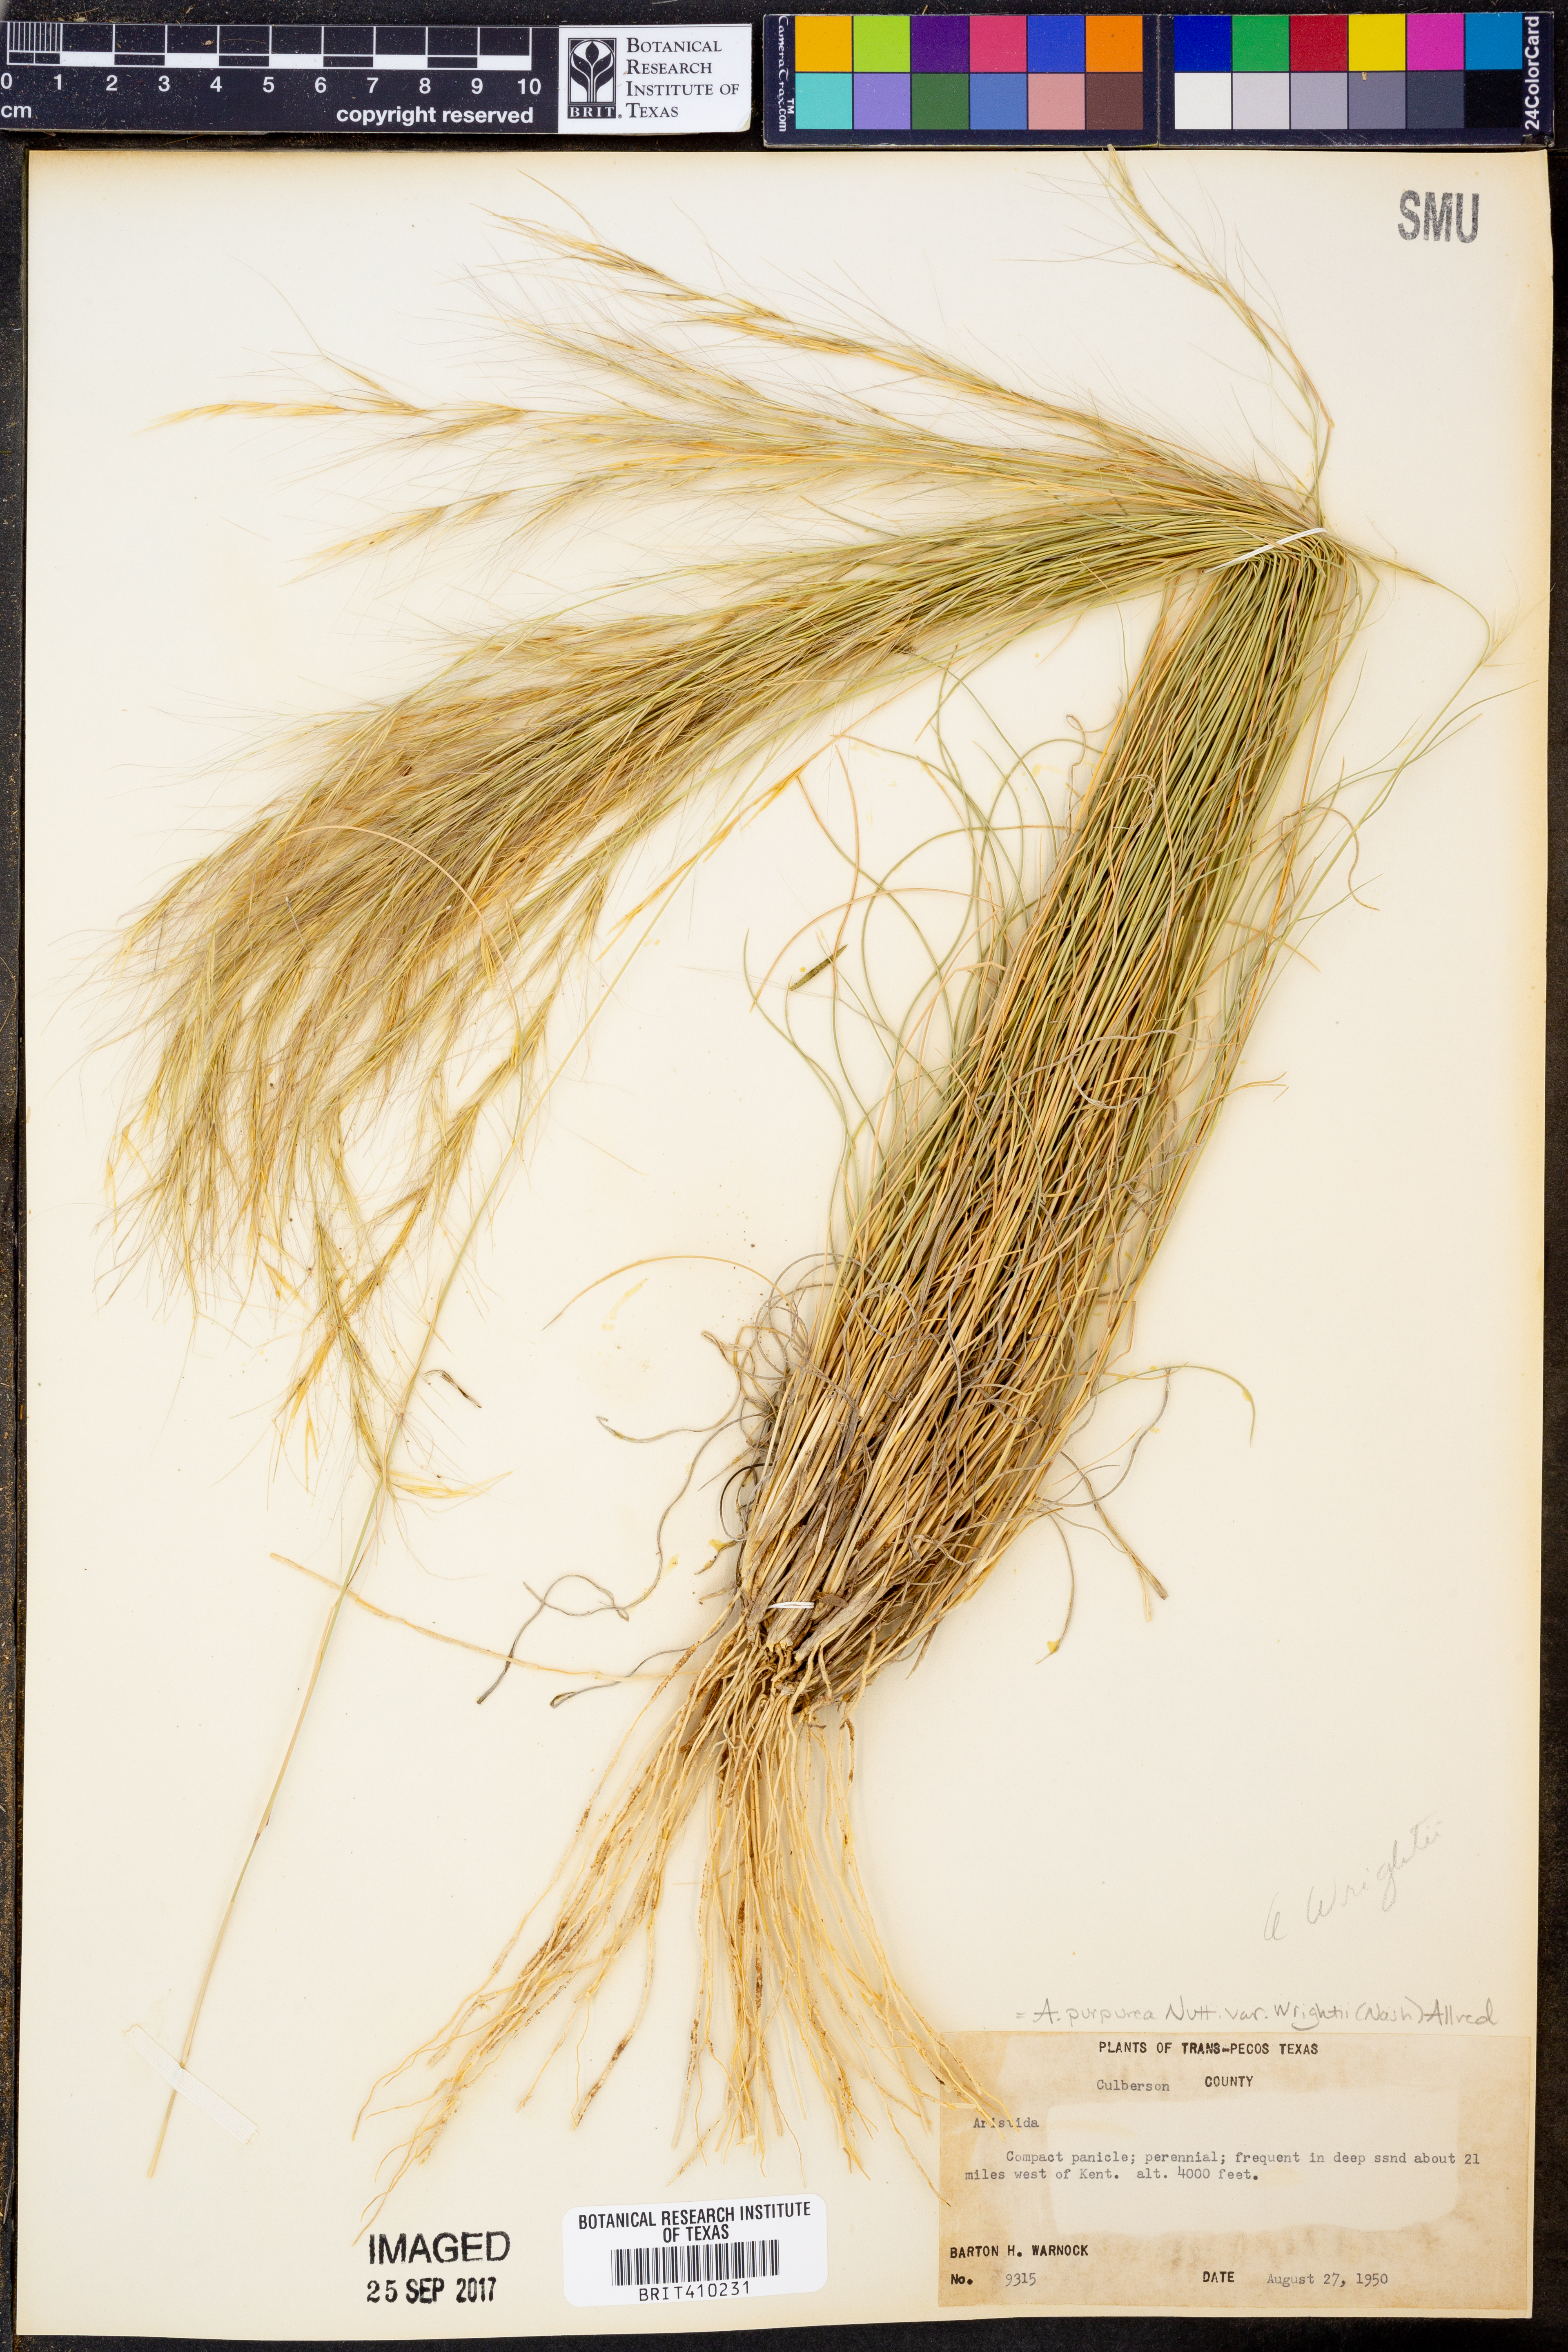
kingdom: Plantae
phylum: Tracheophyta
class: Liliopsida
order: Poales
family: Poaceae
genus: Aristida
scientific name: Aristida wrightii
